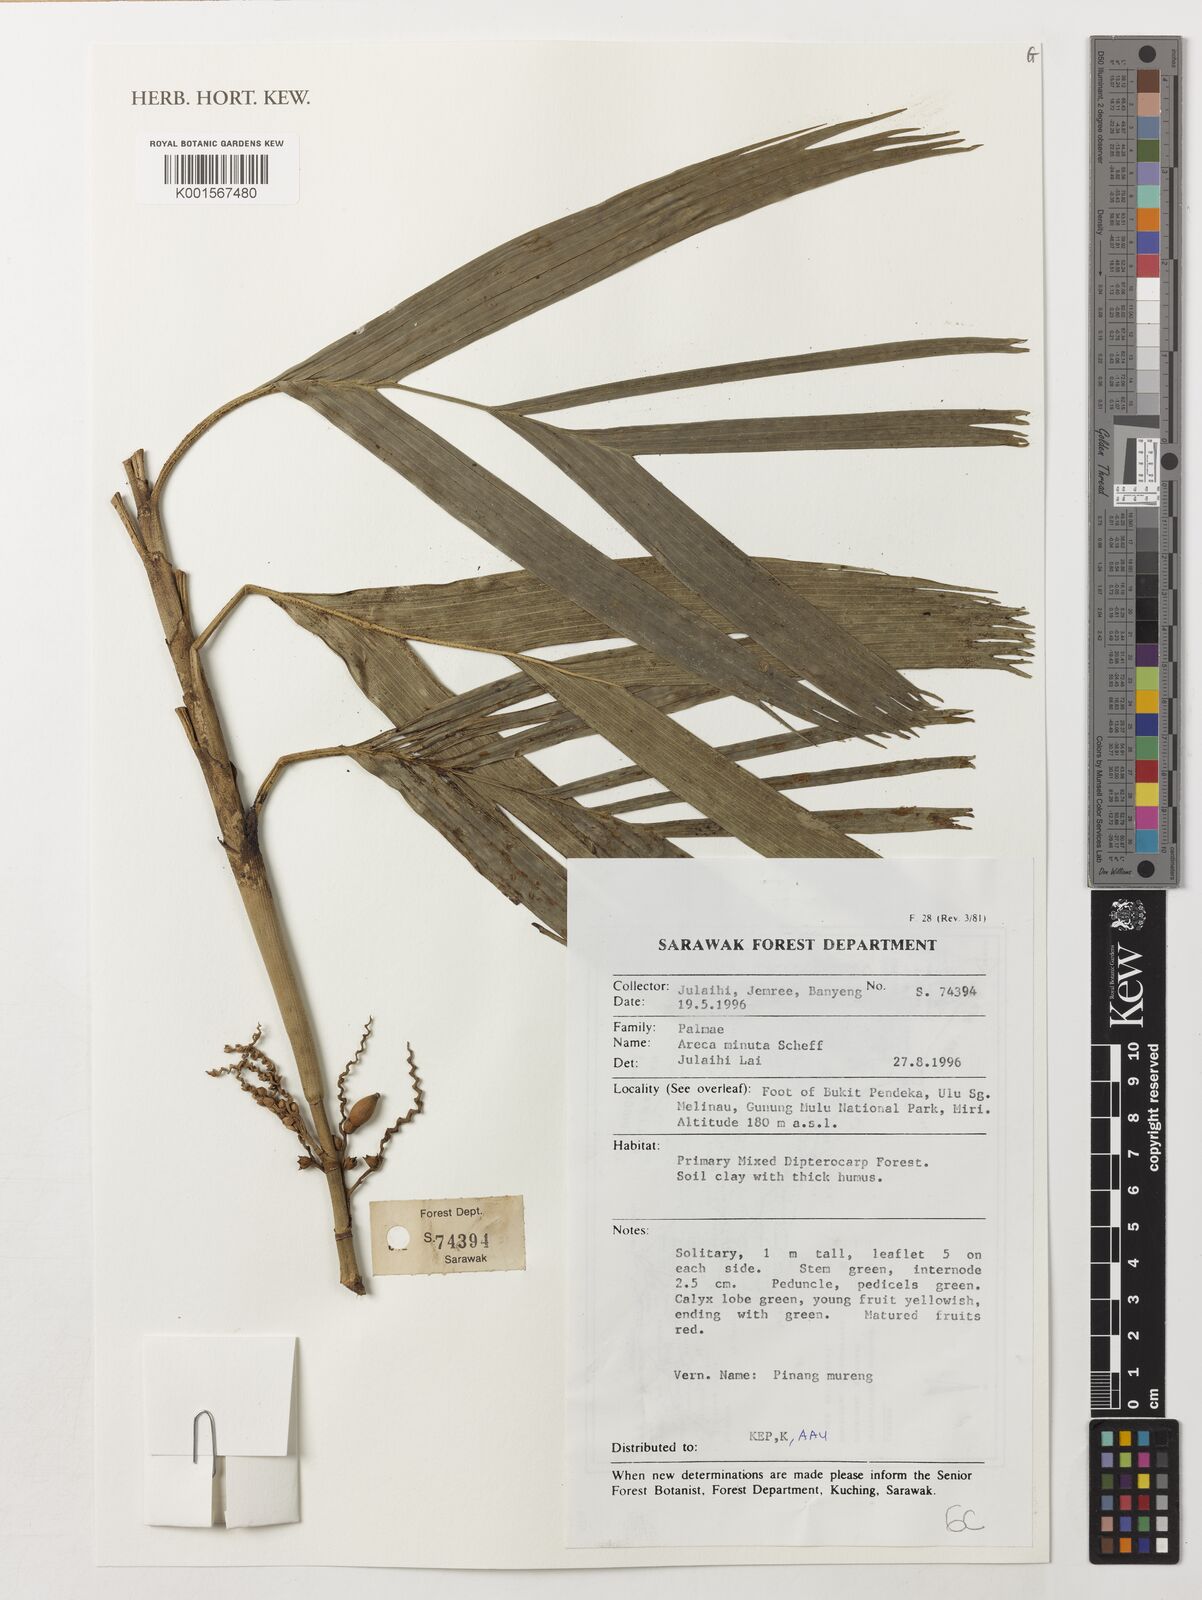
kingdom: Plantae
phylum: Tracheophyta
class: Liliopsida
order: Arecales
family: Arecaceae
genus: Areca
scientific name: Areca minuta
